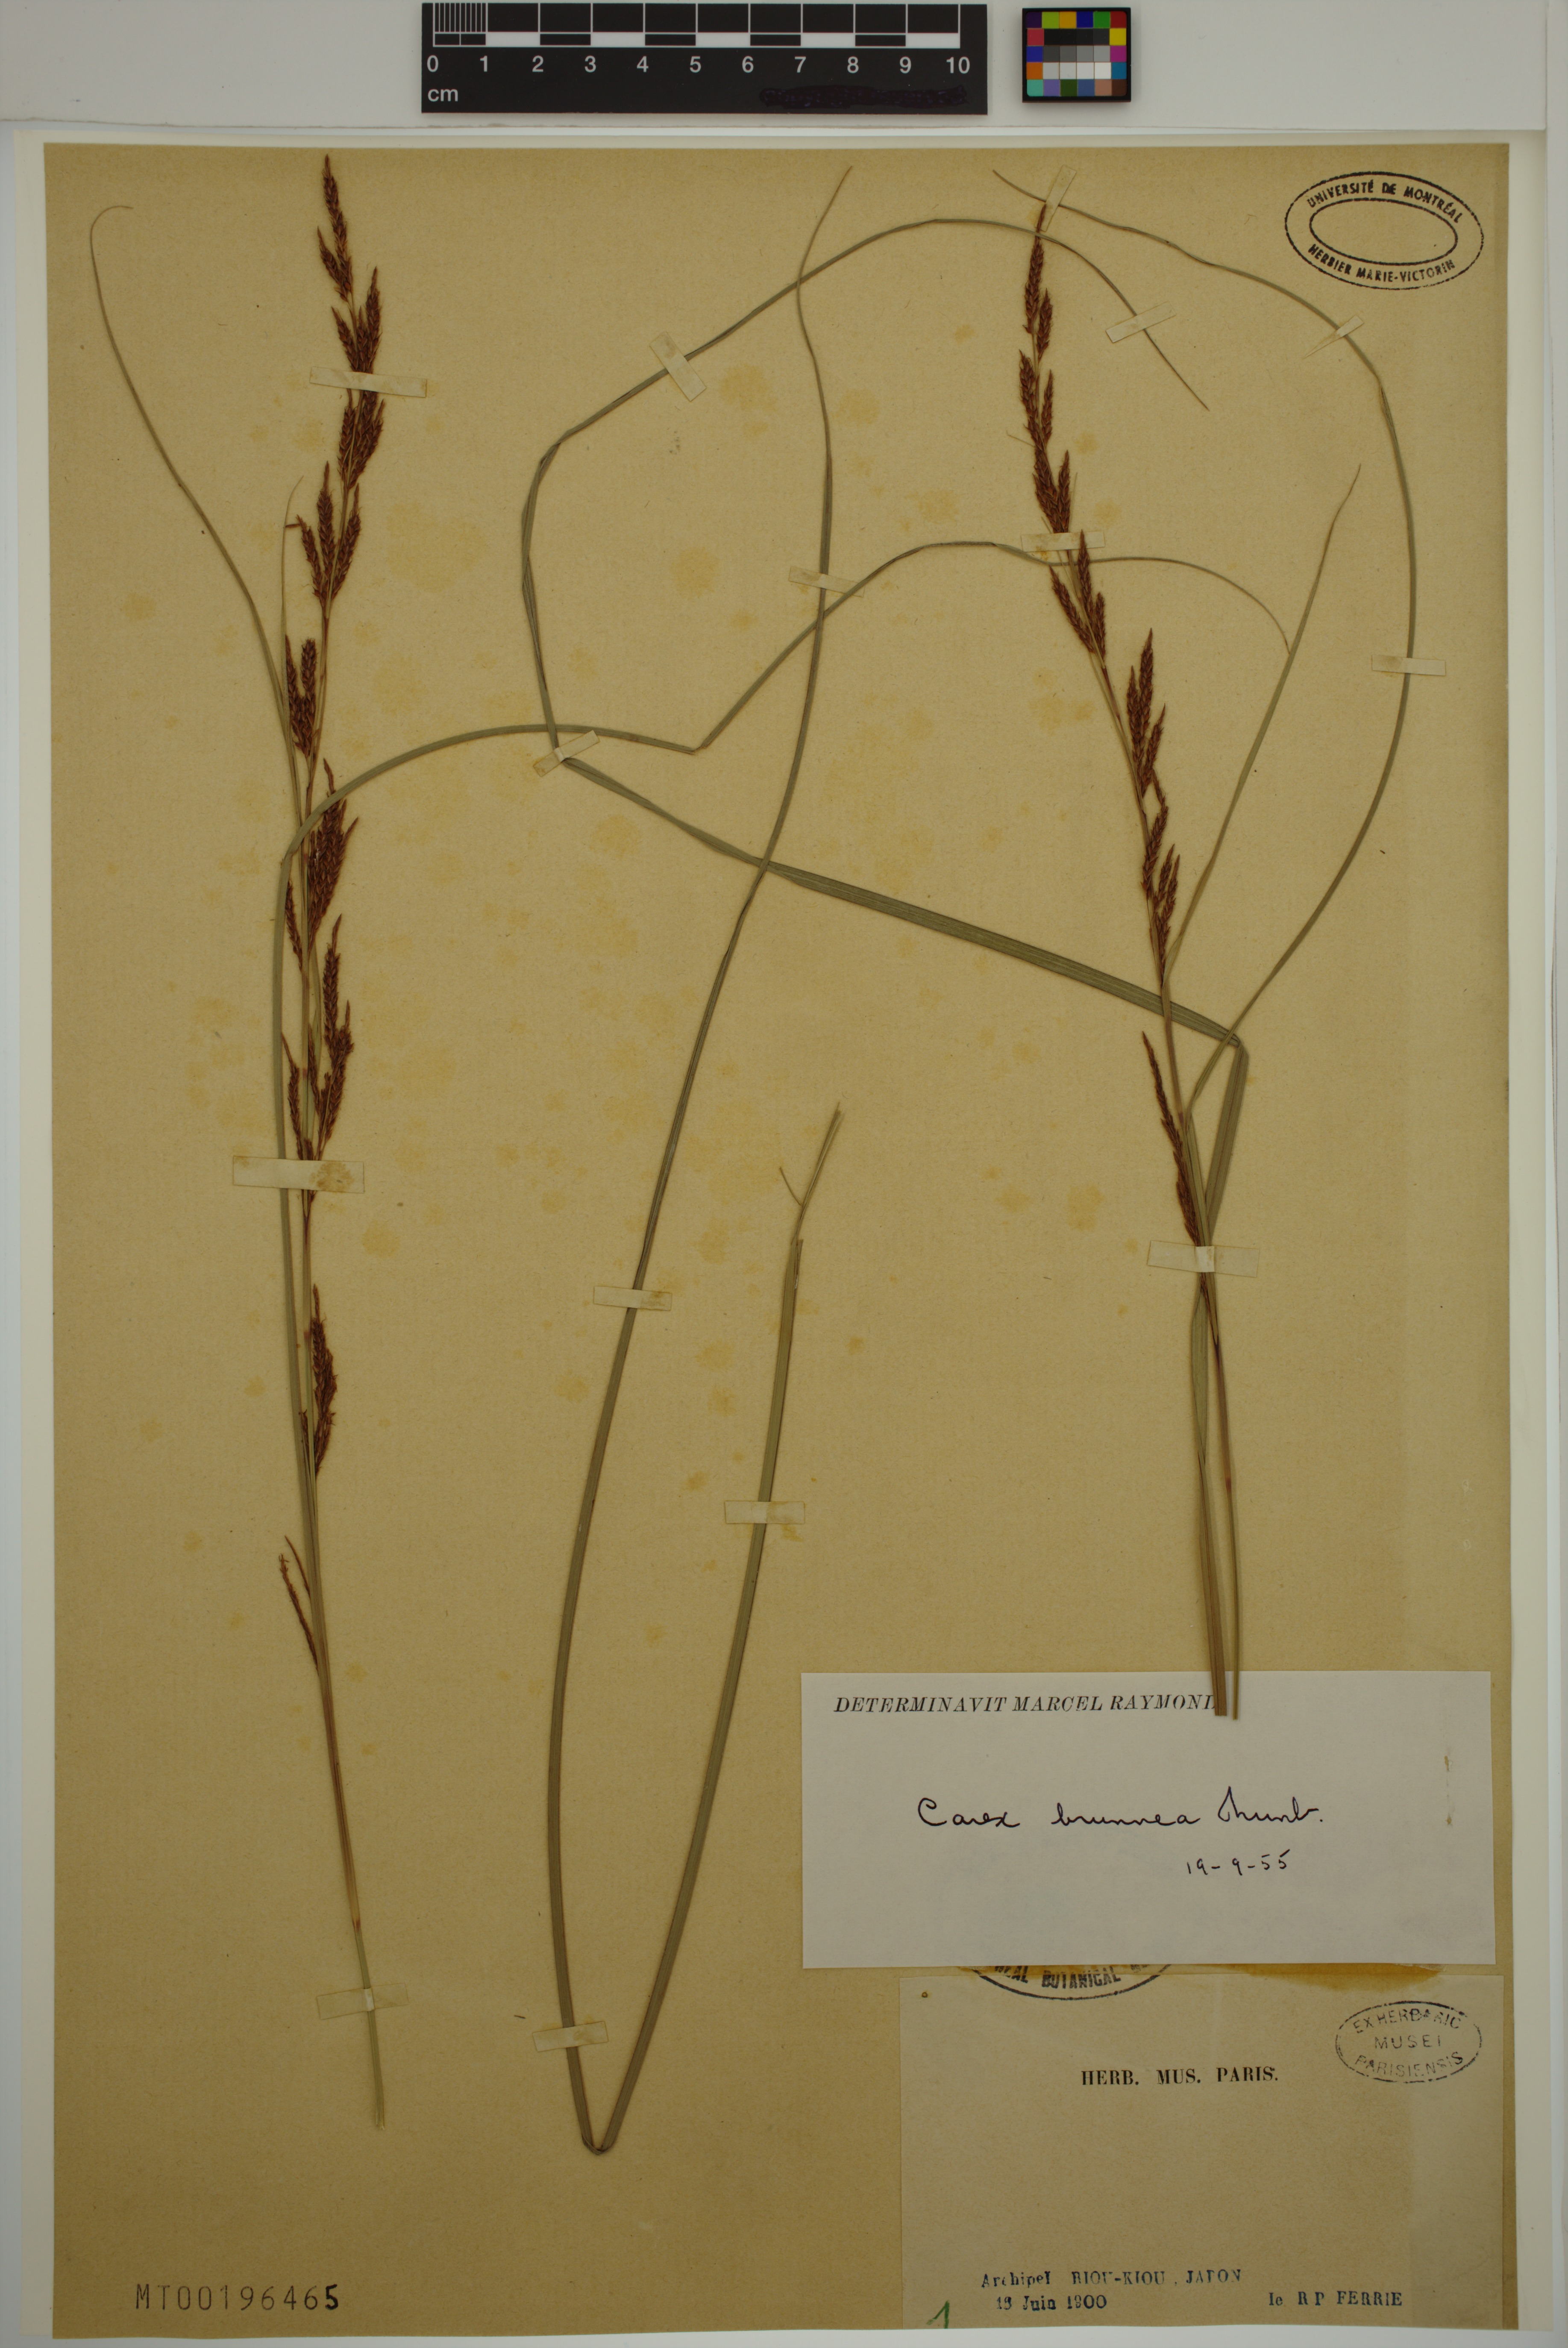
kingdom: Plantae
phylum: Tracheophyta
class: Liliopsida
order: Poales
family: Cyperaceae
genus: Carex
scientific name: Carex brunnea
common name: Greater brown sedge
